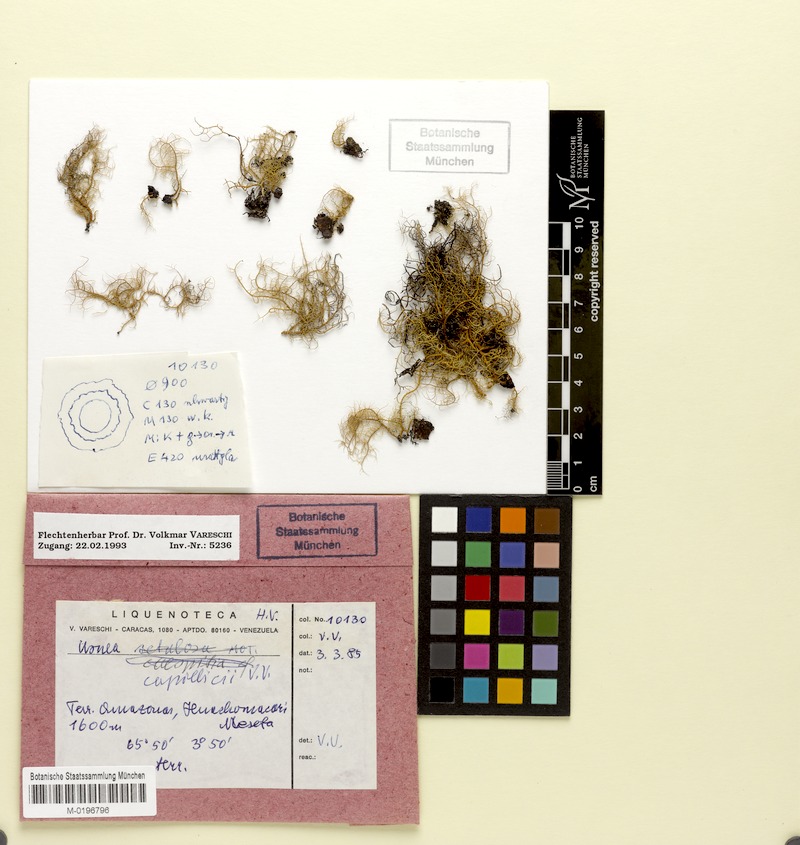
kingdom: Fungi
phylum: Ascomycota
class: Lecanoromycetes
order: Lecanorales
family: Parmeliaceae
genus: Usnea
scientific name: Usnea
